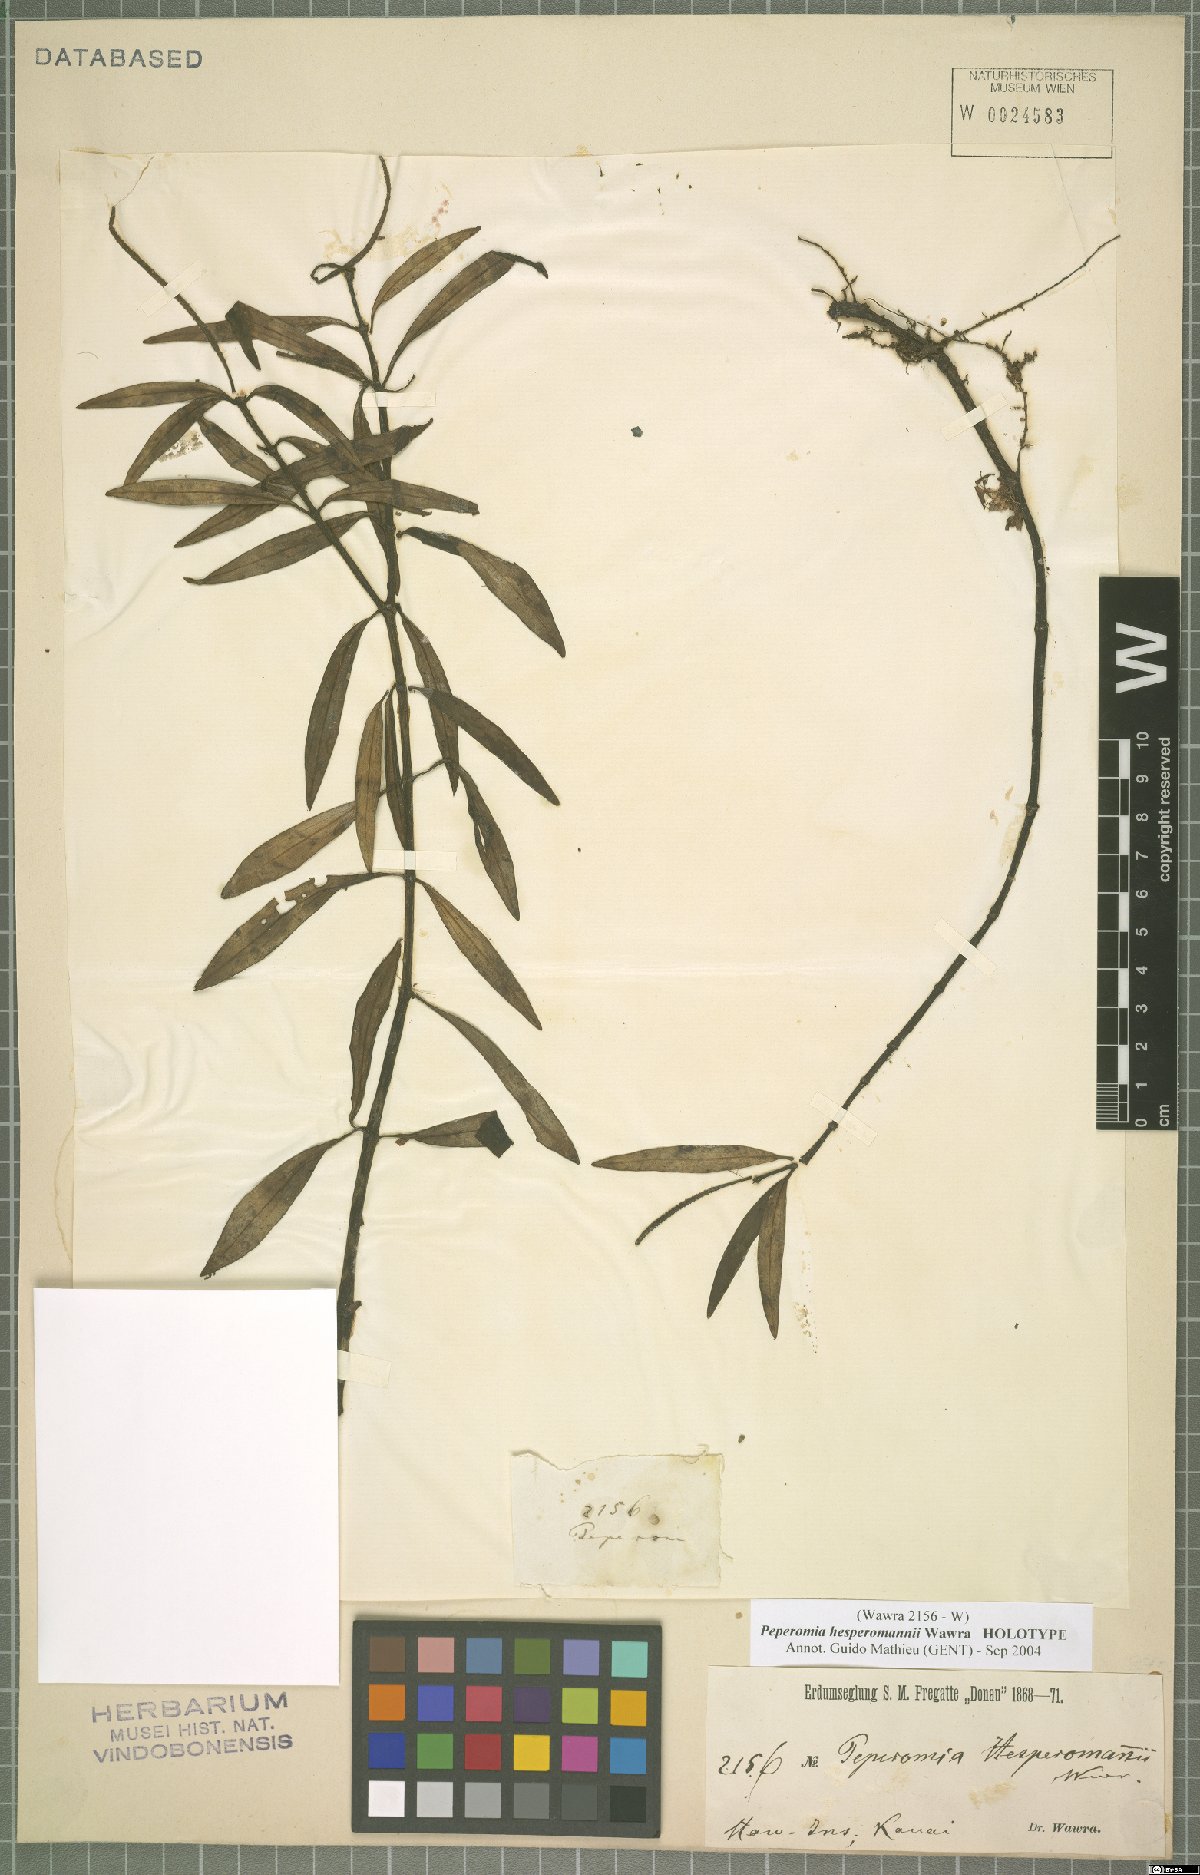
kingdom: Plantae
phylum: Tracheophyta
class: Magnoliopsida
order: Piperales
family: Piperaceae
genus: Peperomia
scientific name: Peperomia hesperomannii
